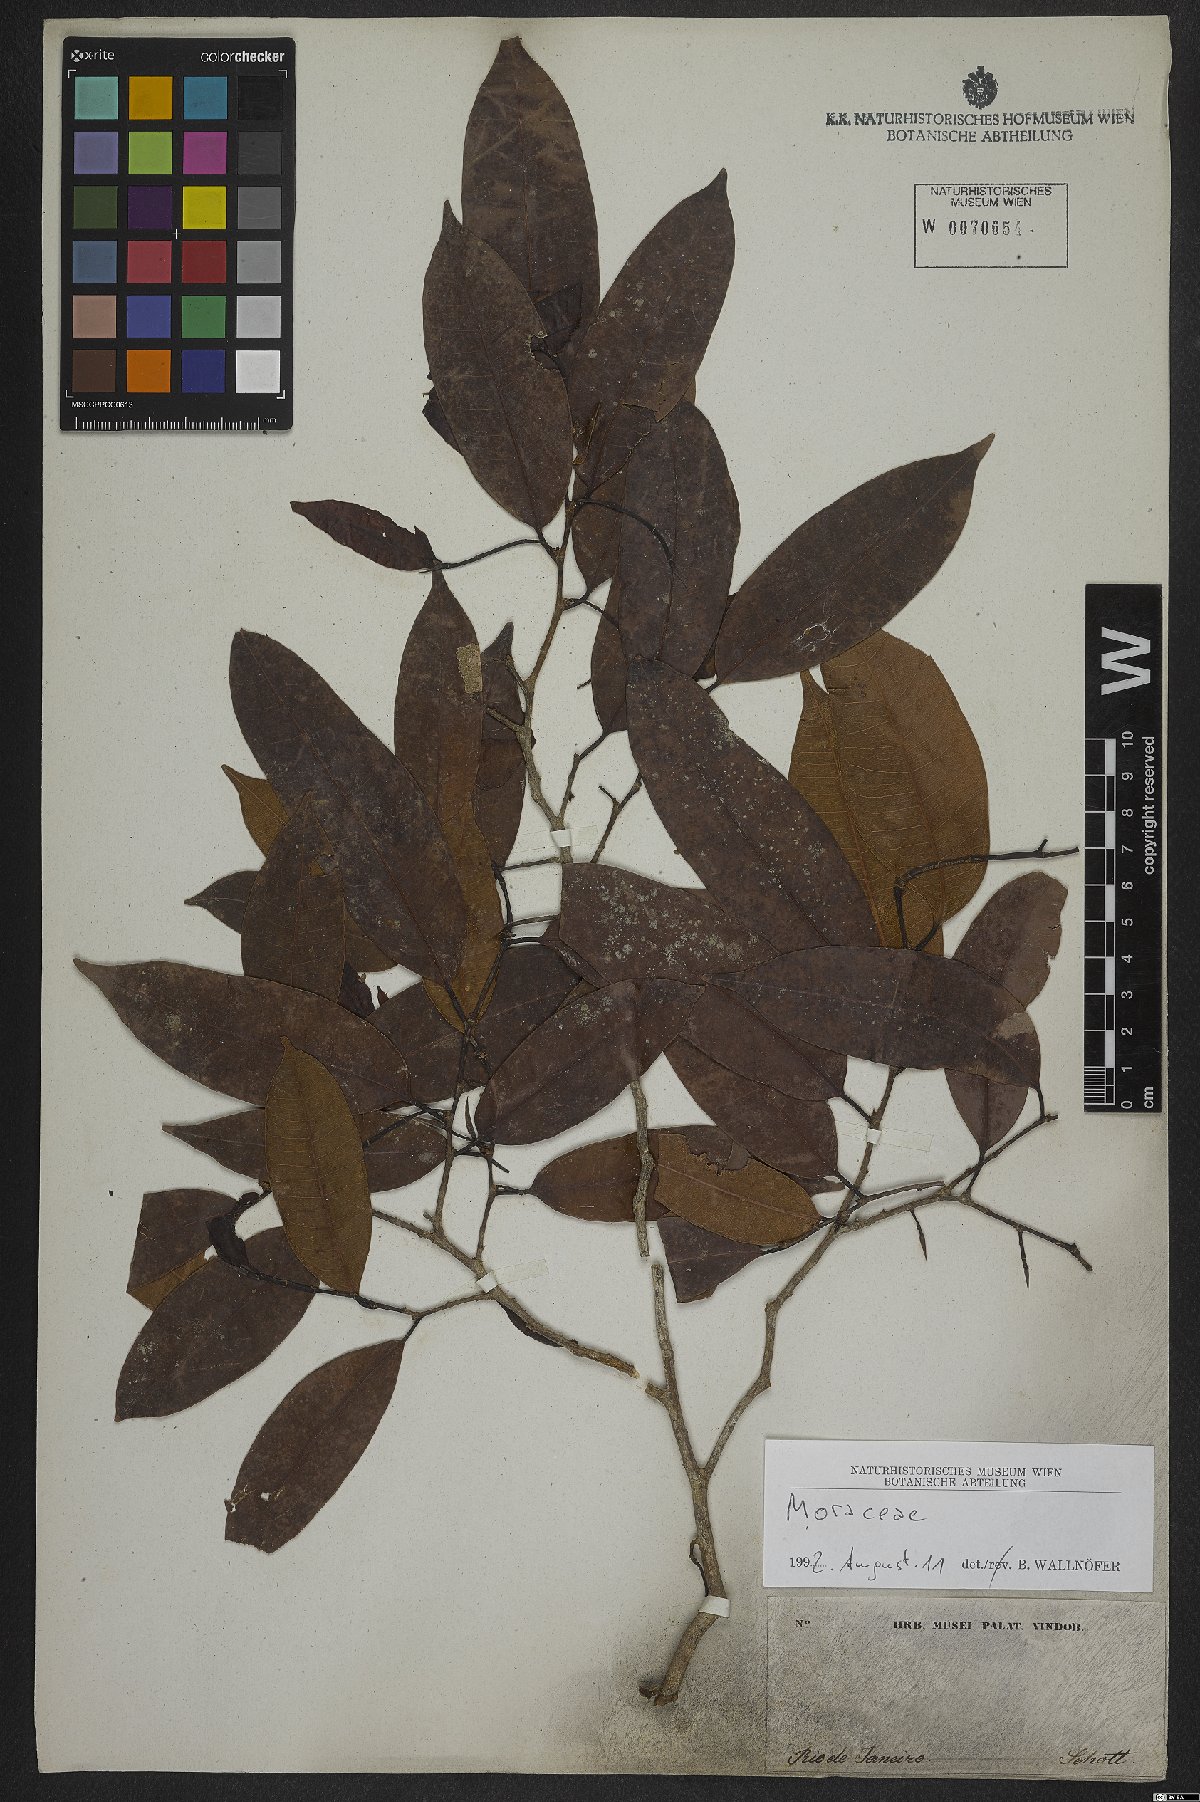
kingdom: Plantae
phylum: Tracheophyta
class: Magnoliopsida
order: Rosales
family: Moraceae
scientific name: Moraceae
